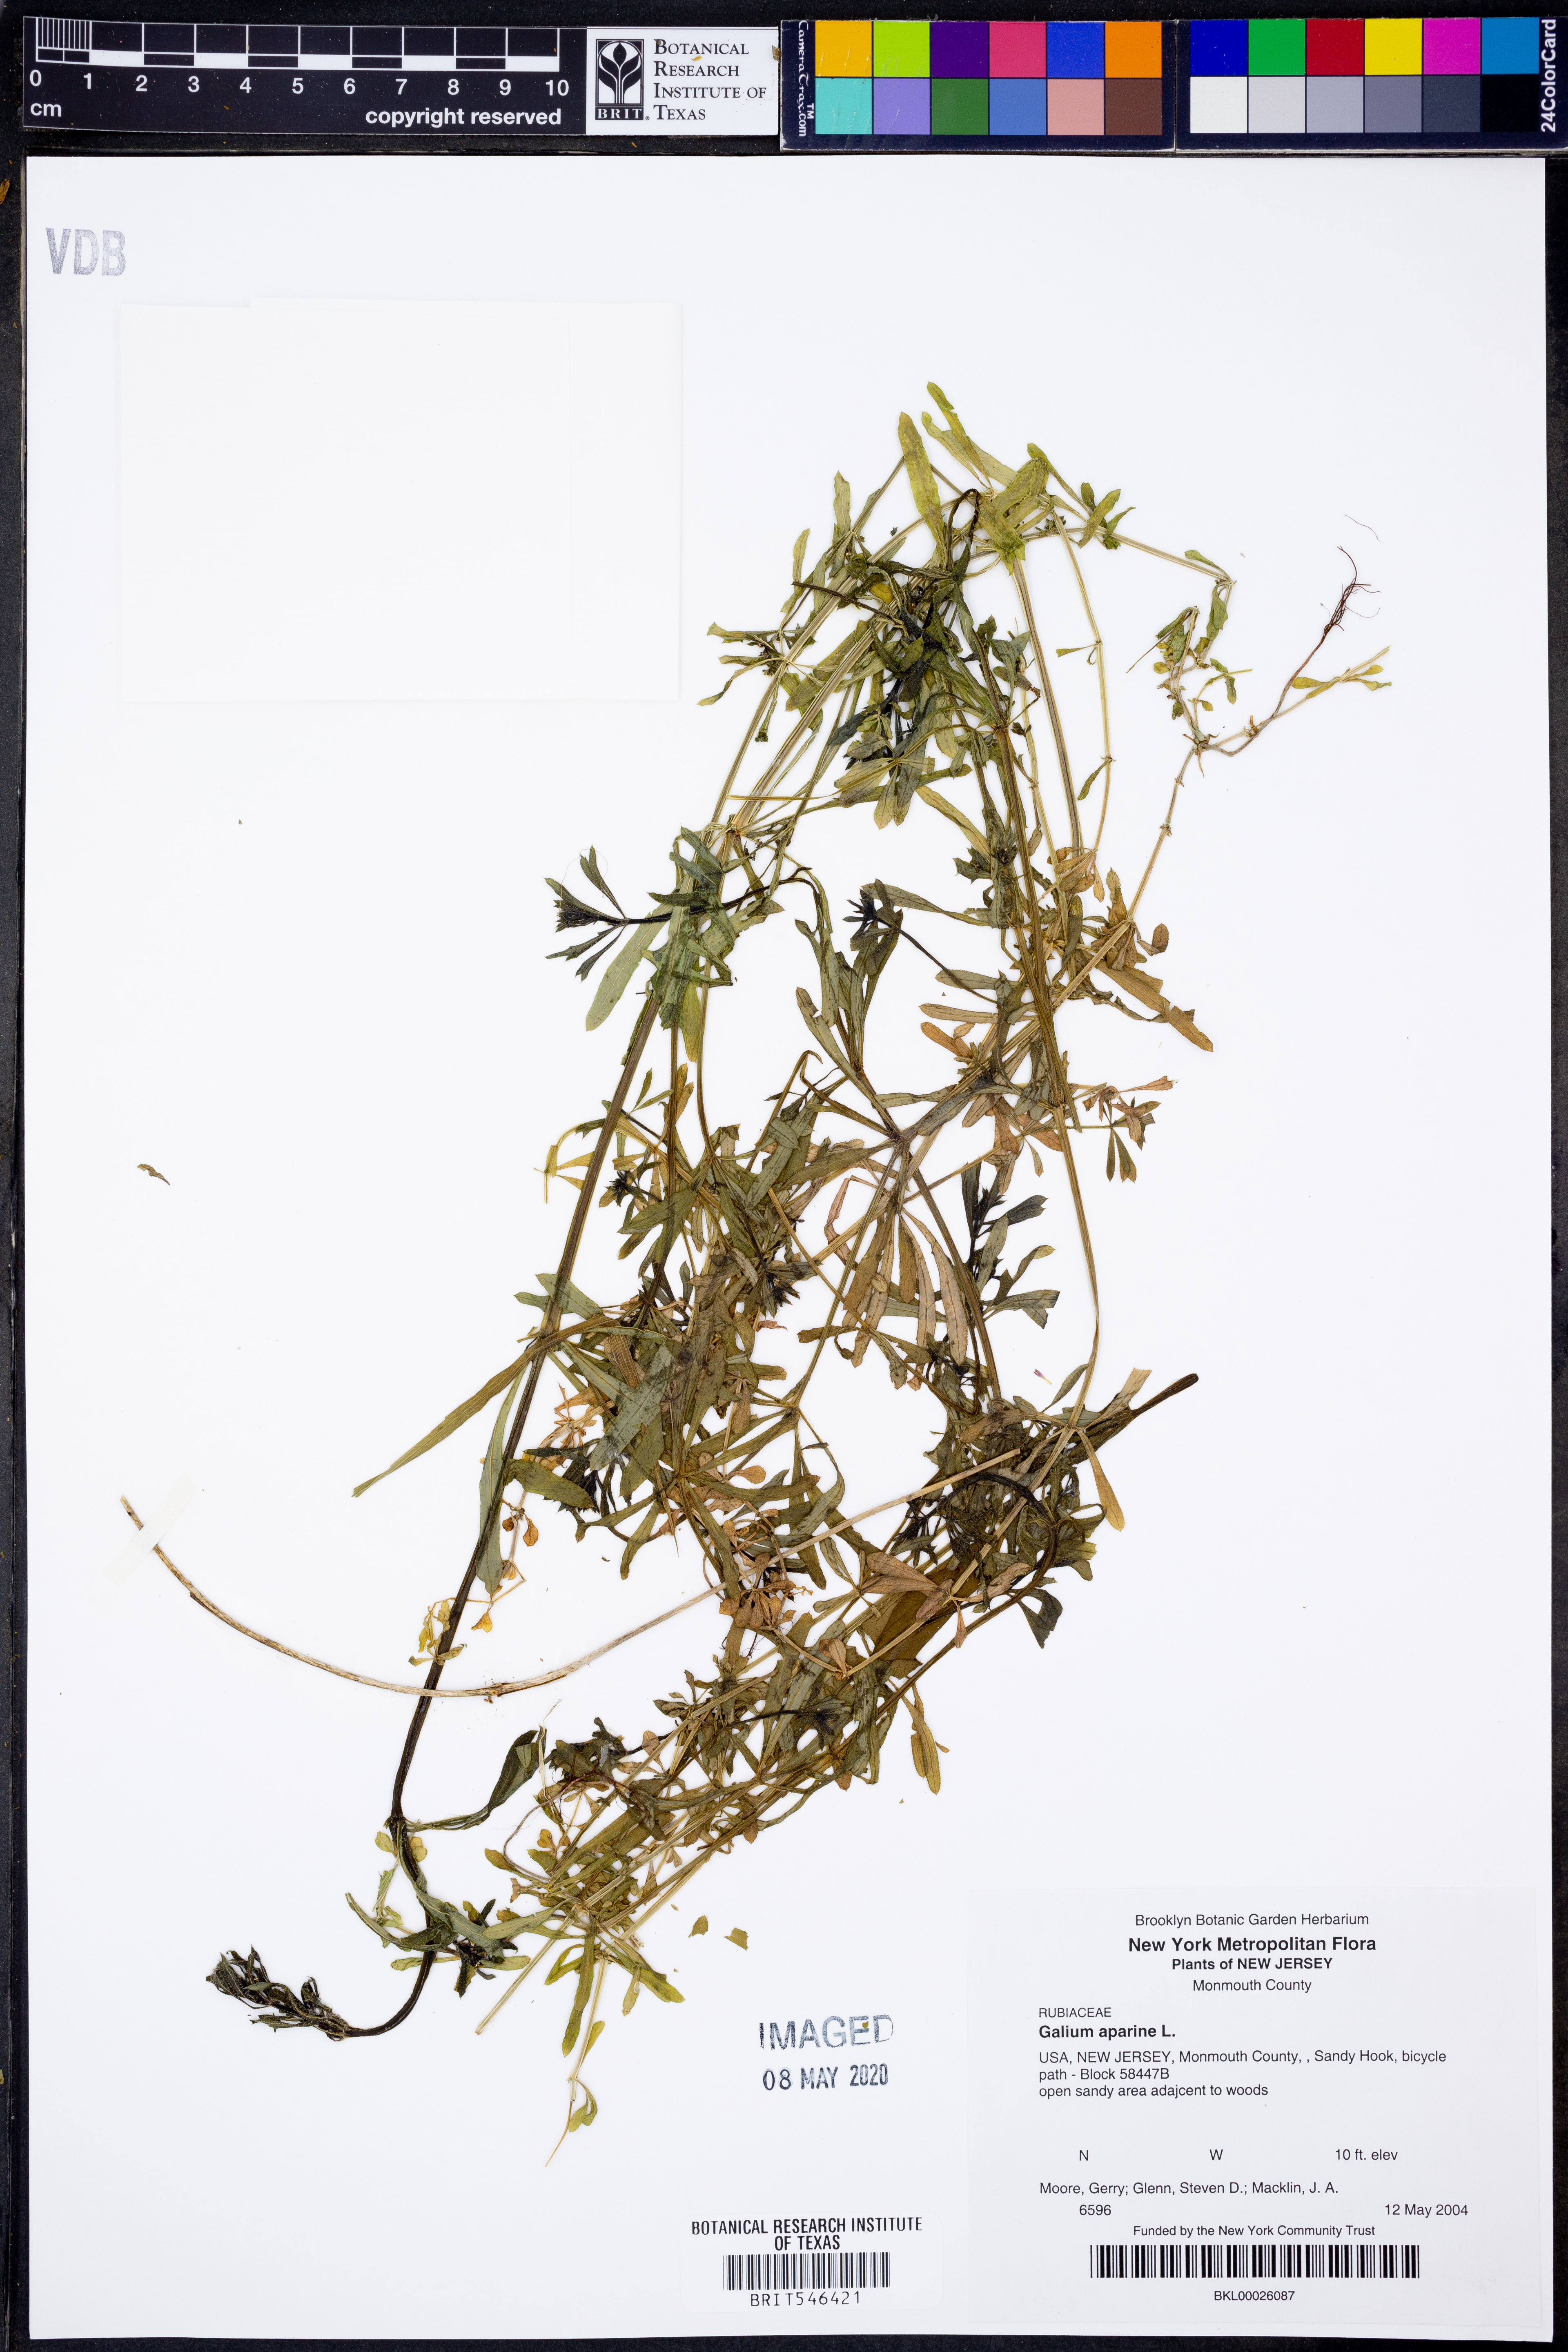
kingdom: Plantae
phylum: Tracheophyta
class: Magnoliopsida
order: Gentianales
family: Rubiaceae
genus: Galium
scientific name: Galium aparine
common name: Cleavers
